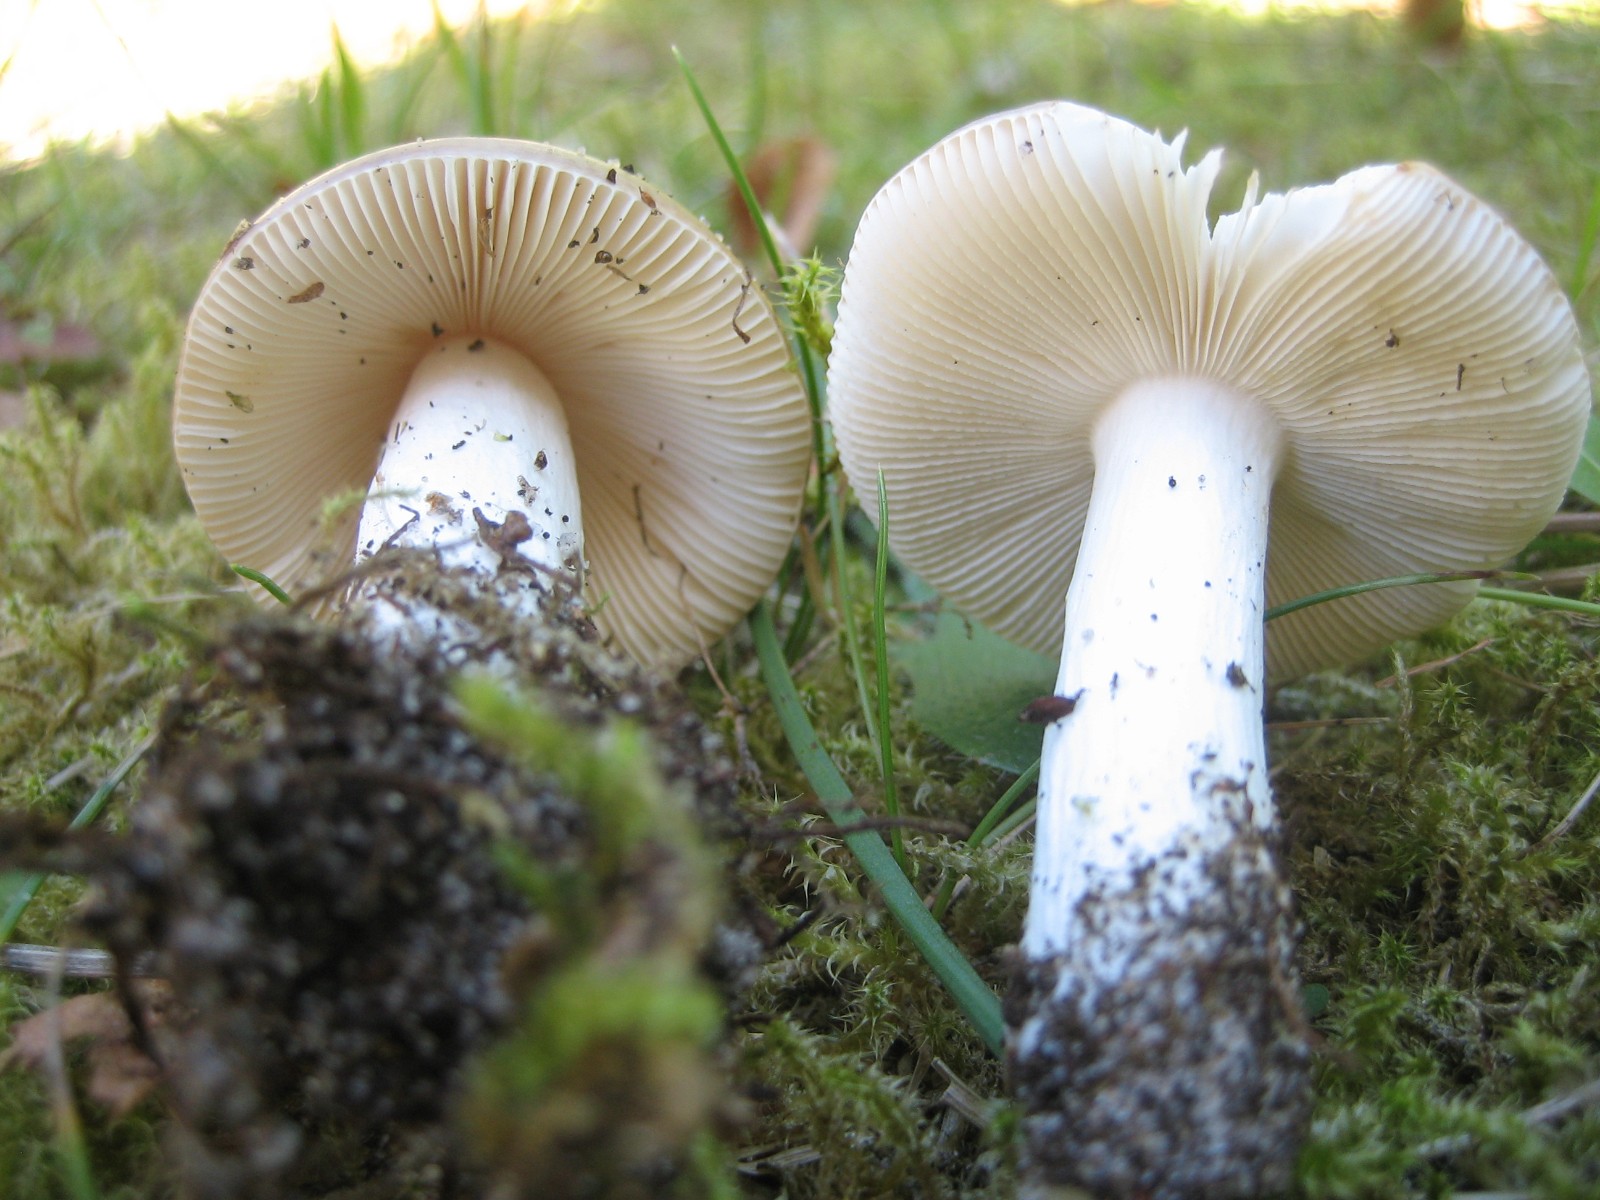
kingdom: Fungi
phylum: Basidiomycota
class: Agaricomycetes
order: Russulales
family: Russulaceae
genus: Russula
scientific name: Russula versicolor
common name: foranderlig skørhat
